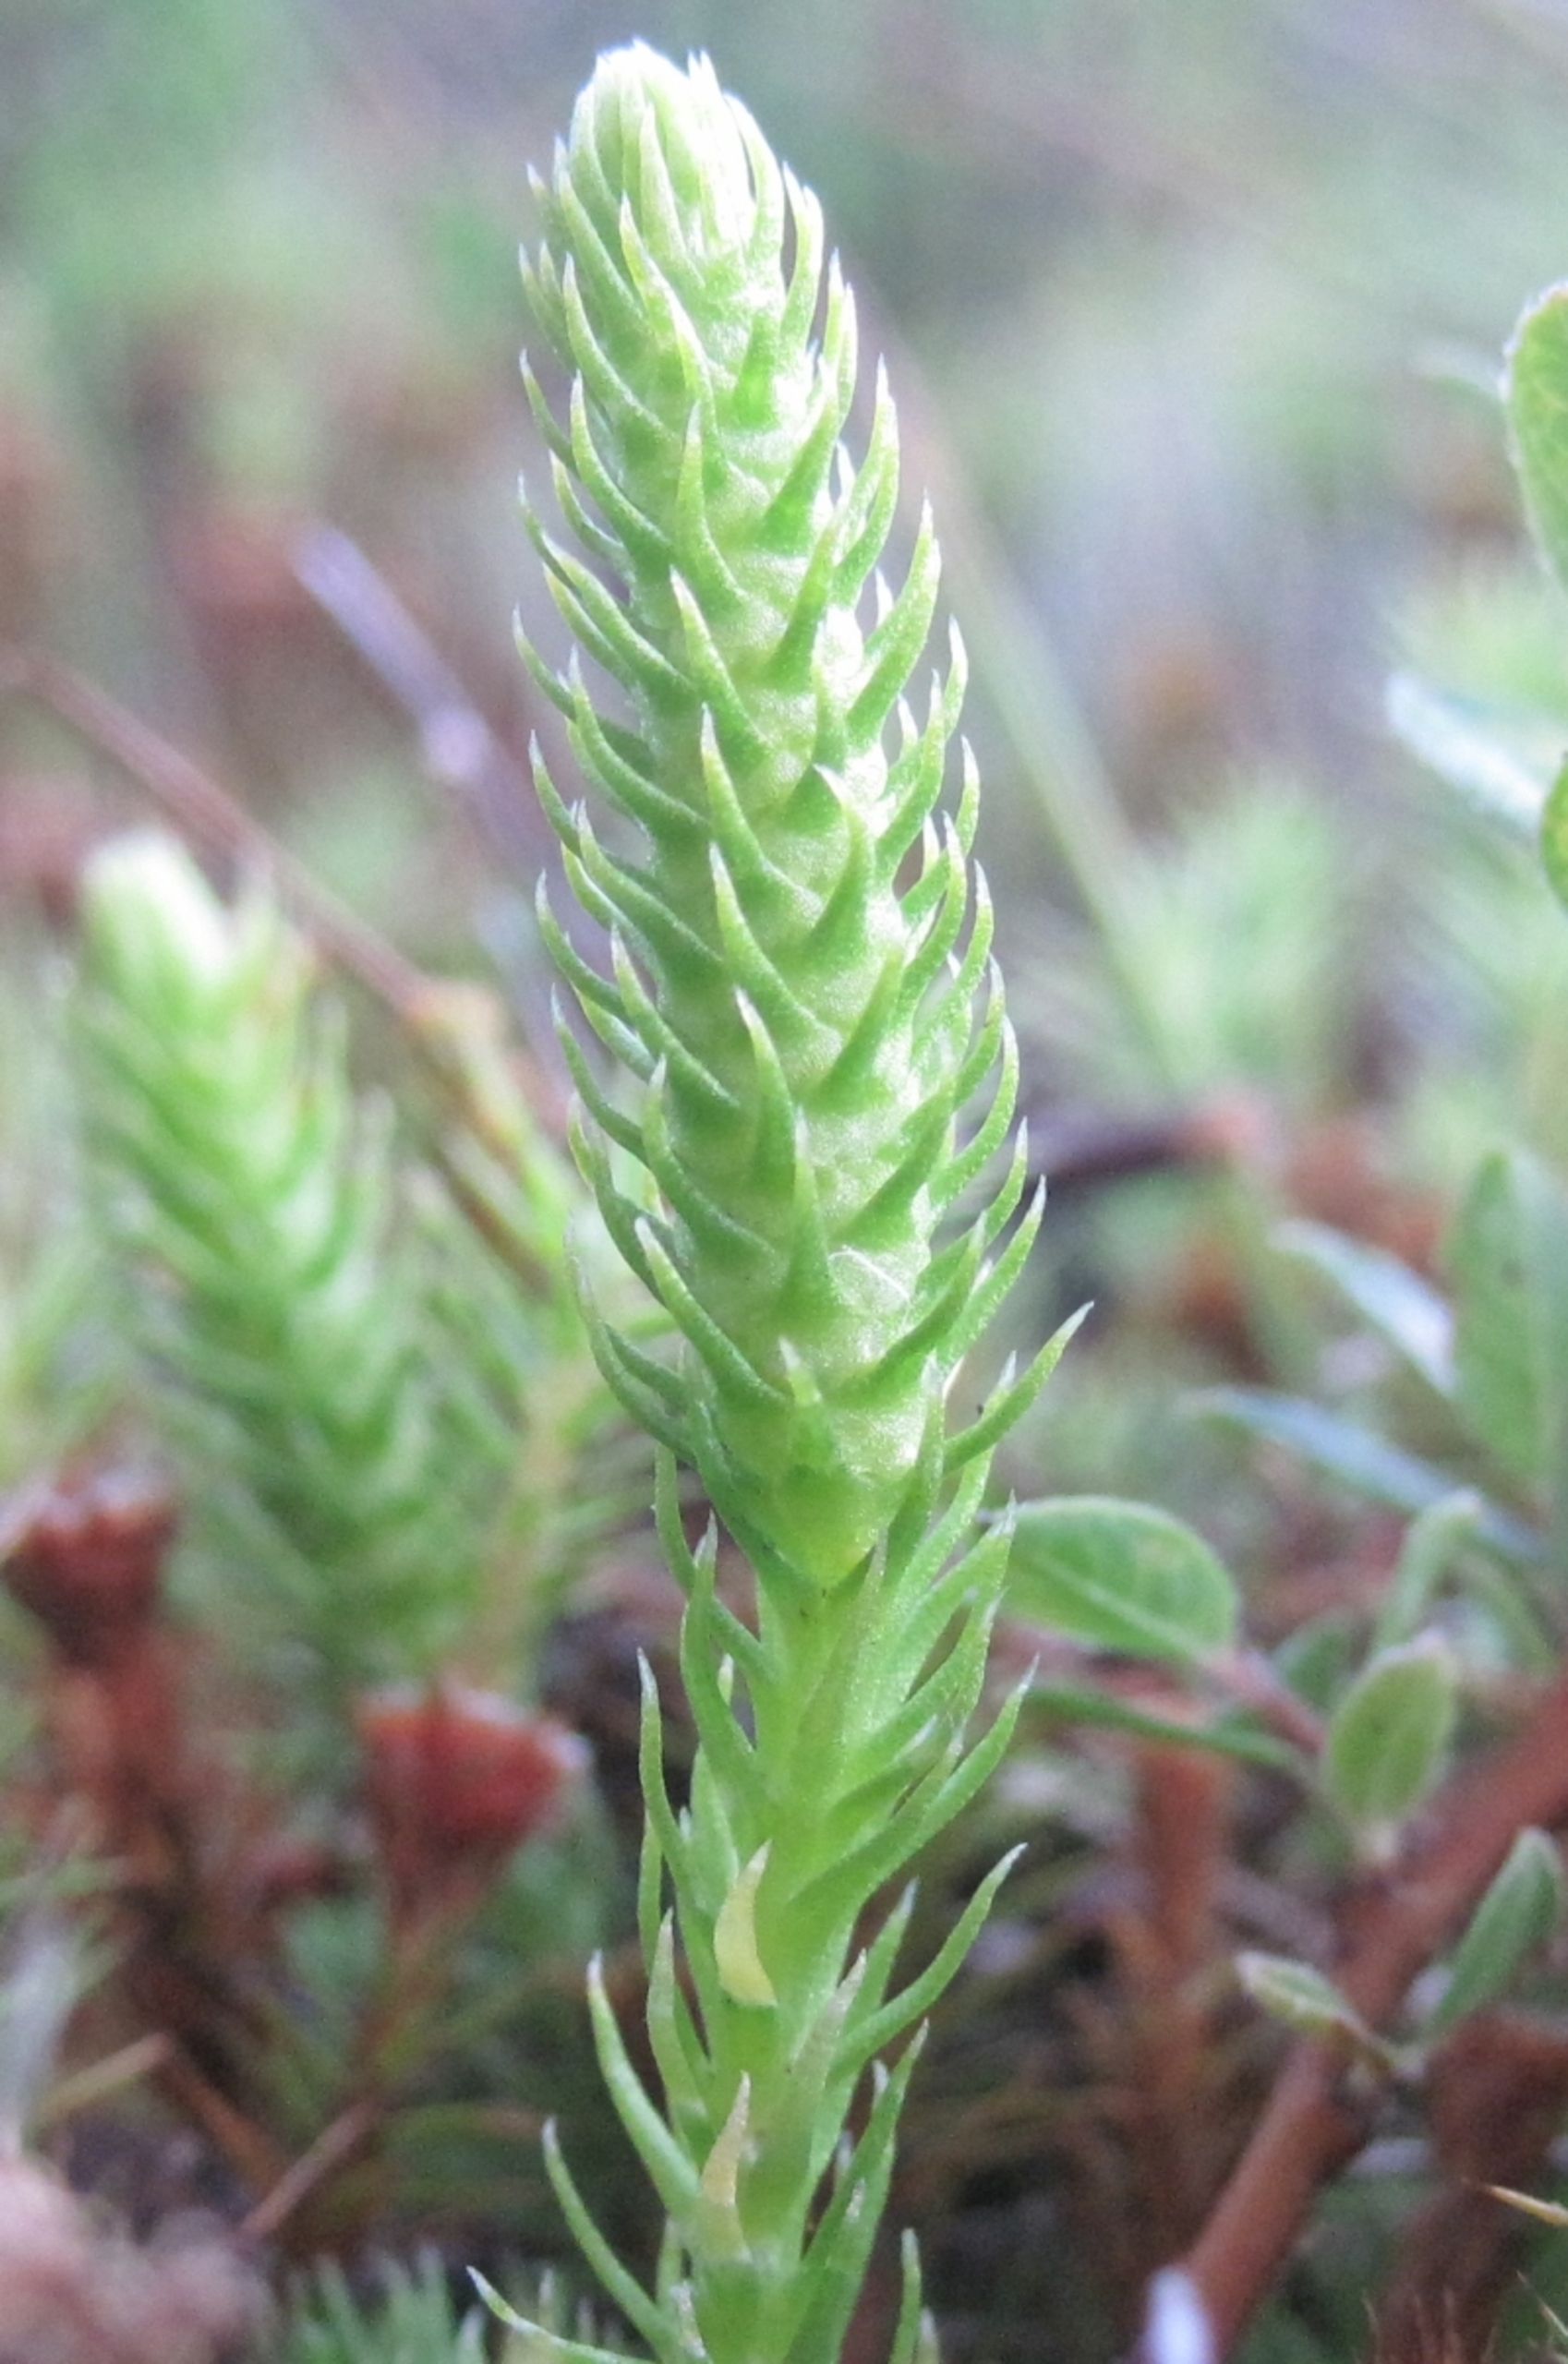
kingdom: Plantae
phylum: Tracheophyta
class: Lycopodiopsida
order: Lycopodiales
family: Lycopodiaceae
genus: Lycopodiella
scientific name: Lycopodiella inundata
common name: Liden ulvefod
